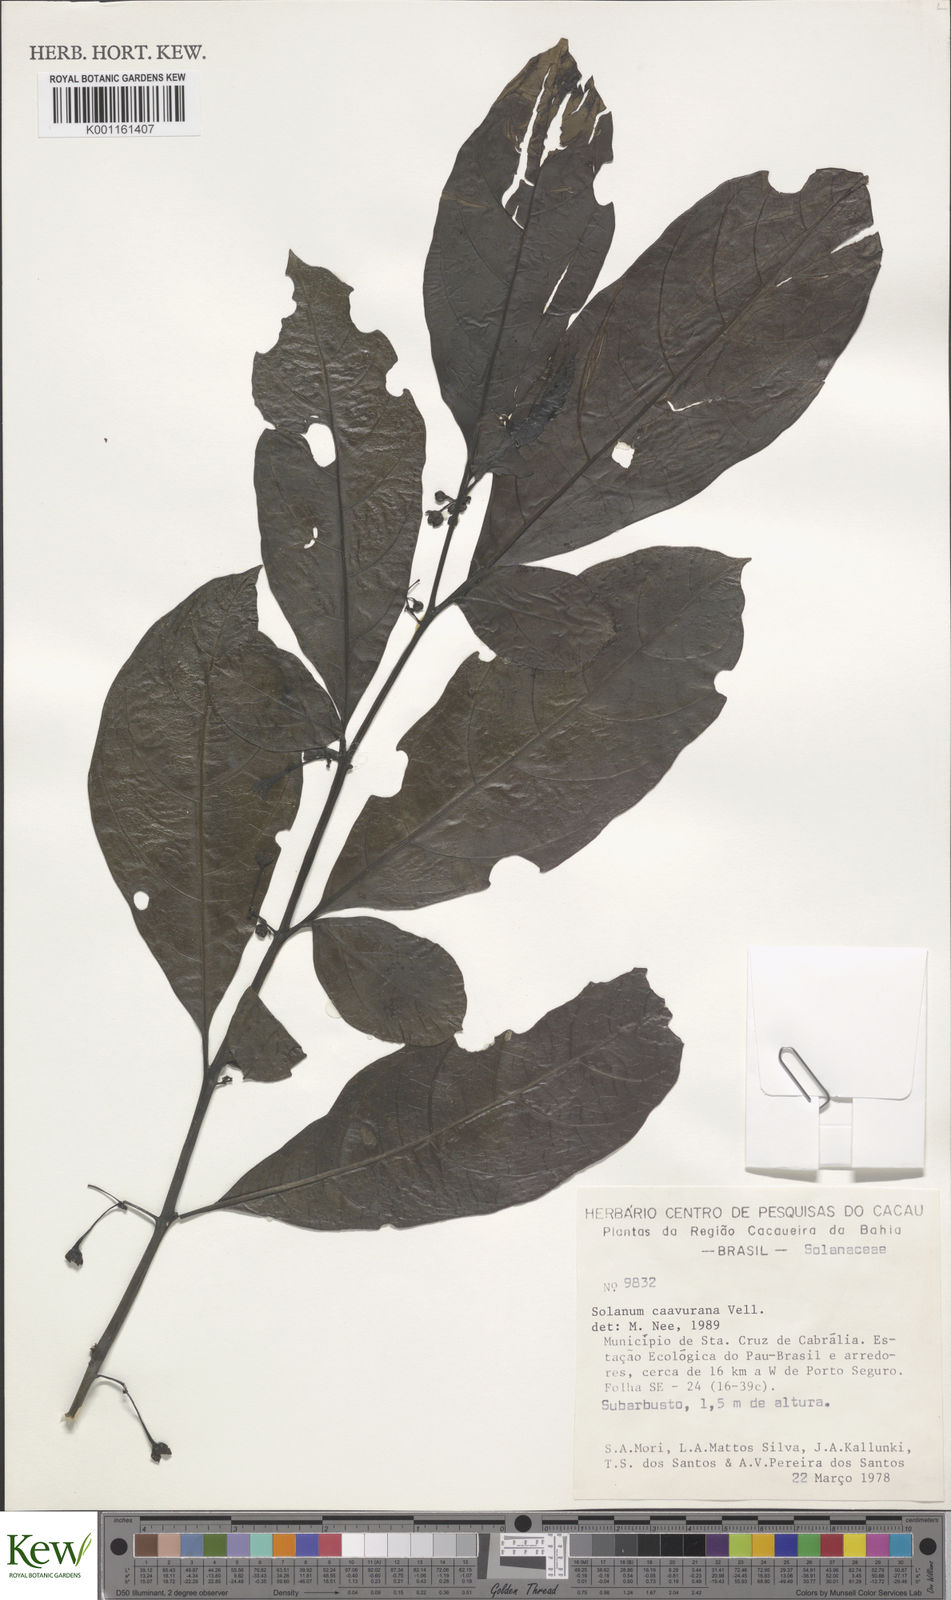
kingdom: Plantae
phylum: Tracheophyta
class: Magnoliopsida
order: Solanales
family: Solanaceae
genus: Solanum
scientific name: Solanum caavurana
